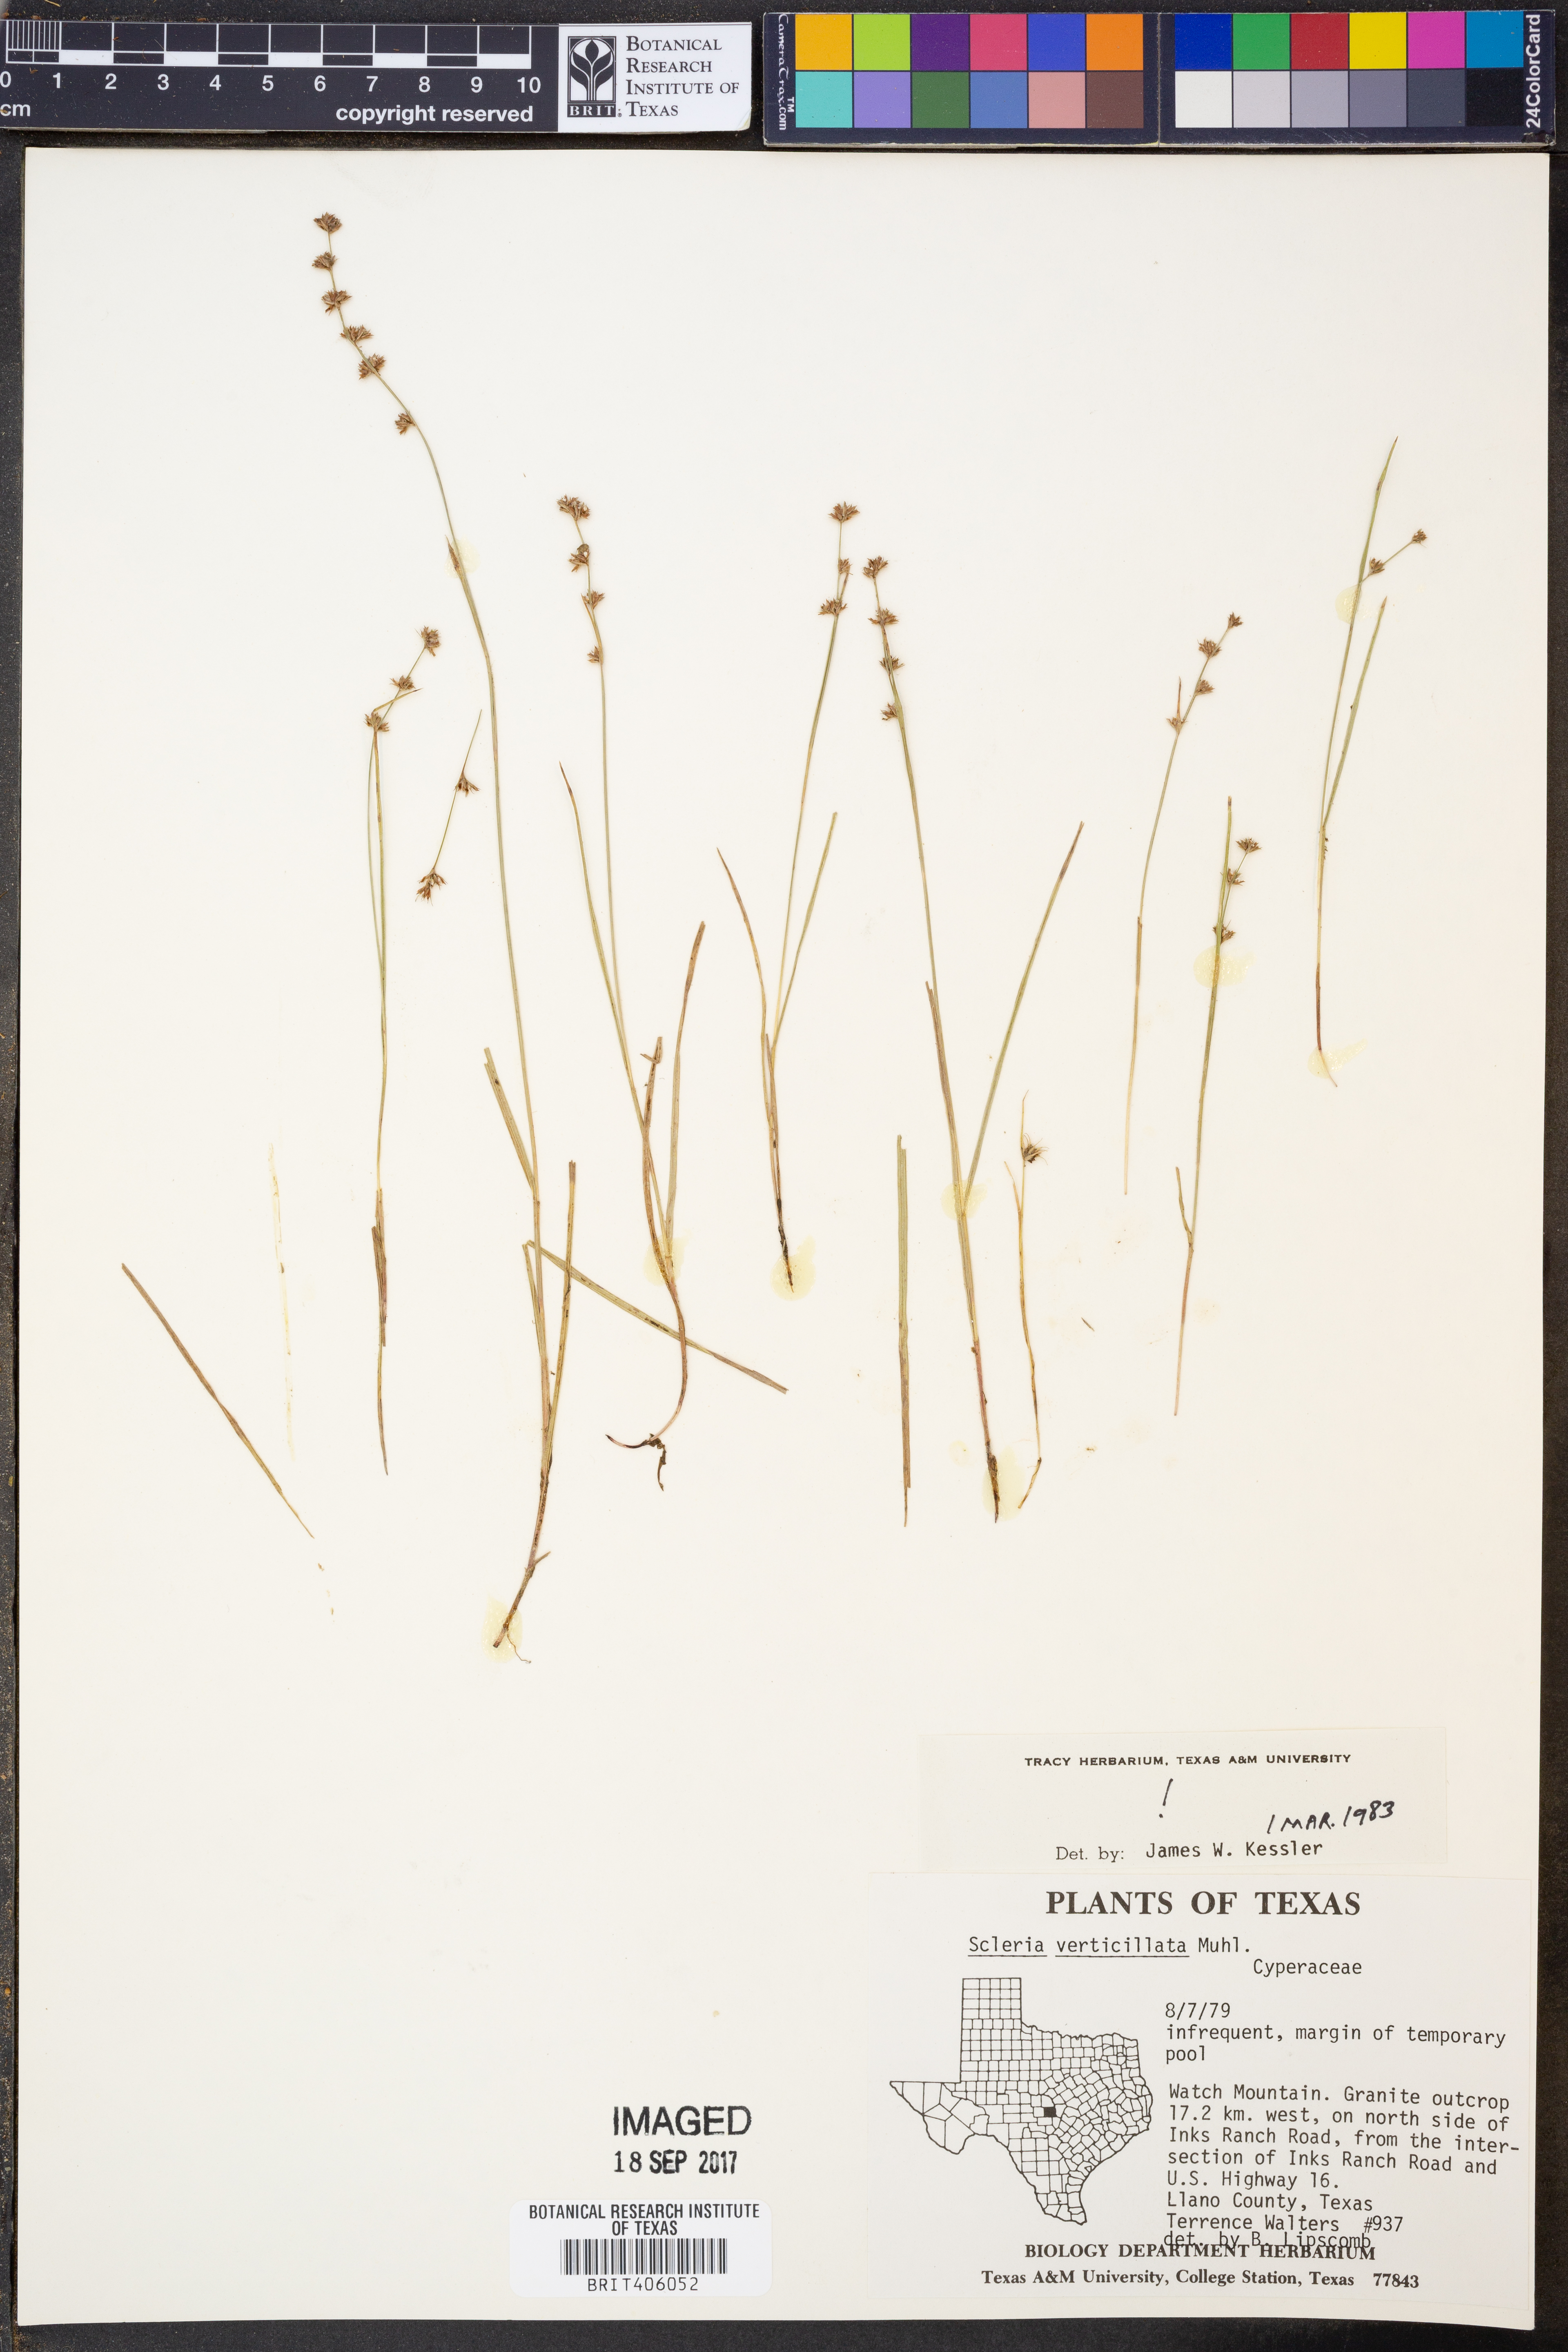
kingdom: Plantae
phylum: Tracheophyta
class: Liliopsida
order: Poales
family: Cyperaceae
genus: Scleria
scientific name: Scleria verticillata
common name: Low nutrush
